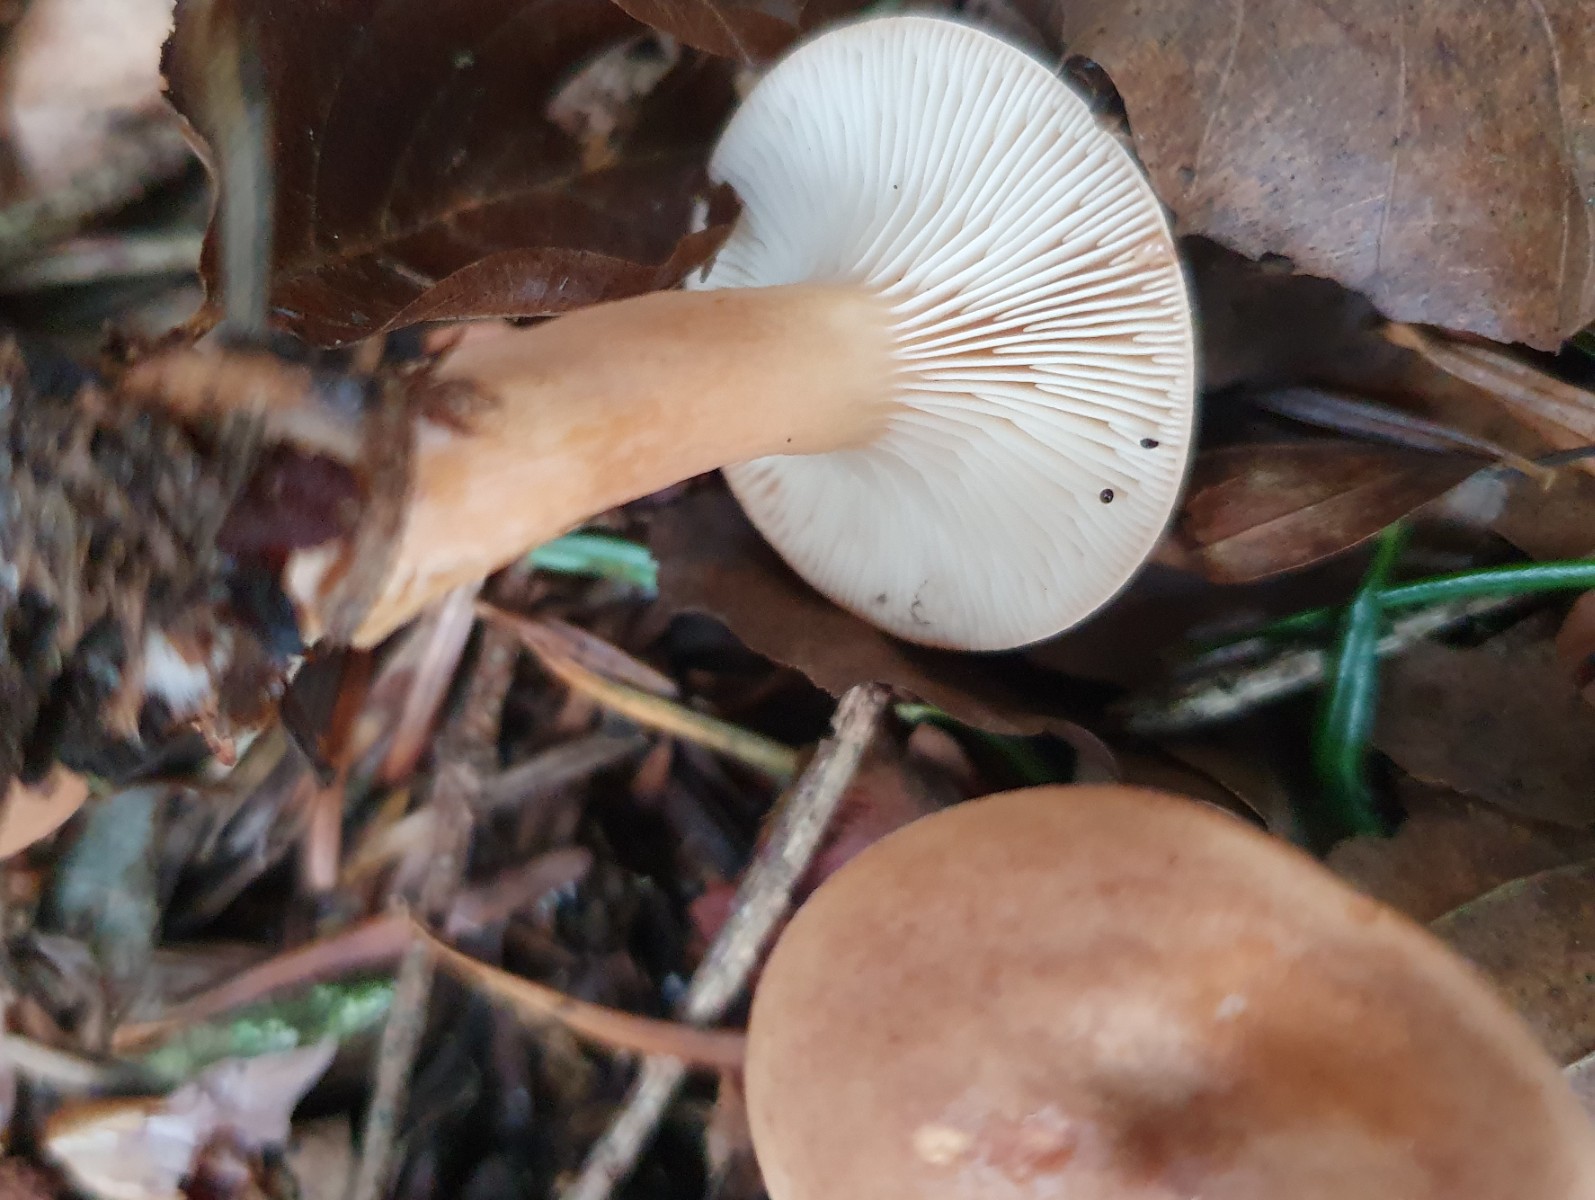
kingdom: Fungi
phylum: Basidiomycota
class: Agaricomycetes
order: Russulales
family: Russulaceae
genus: Lactarius
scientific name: Lactarius subdulcis
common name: sødlig mælkehat
